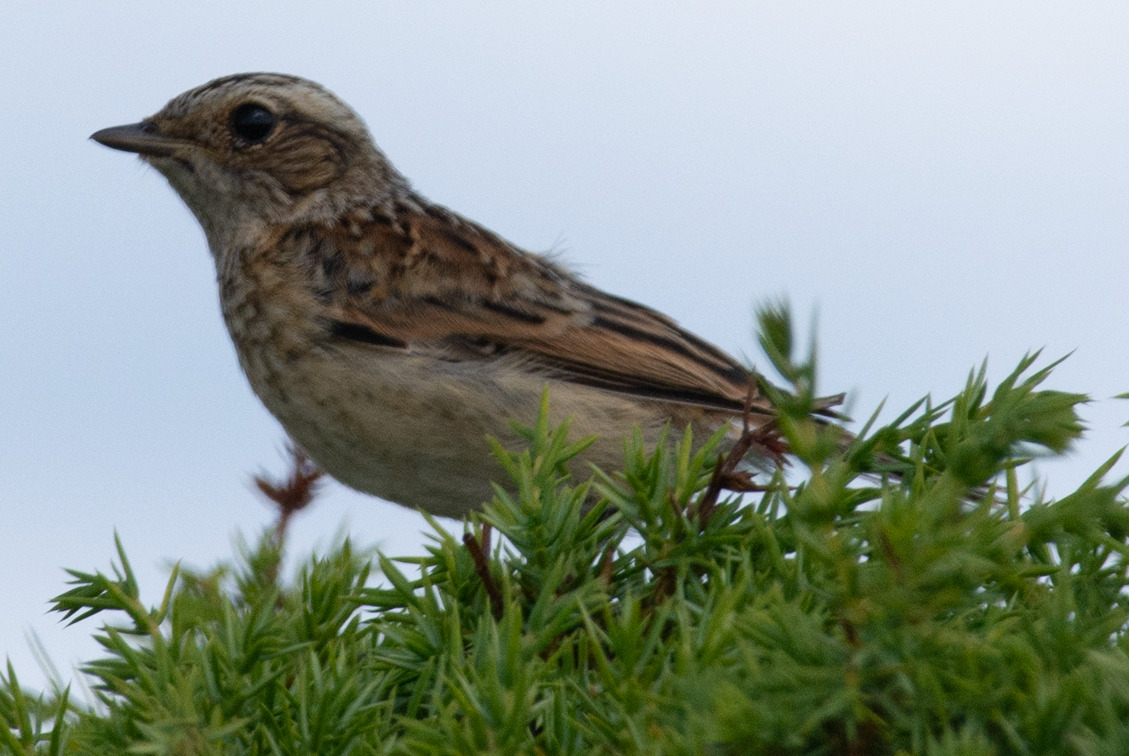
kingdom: Animalia
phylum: Chordata
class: Aves
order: Passeriformes
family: Muscicapidae
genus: Saxicola
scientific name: Saxicola rubetra
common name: Bynkefugl
